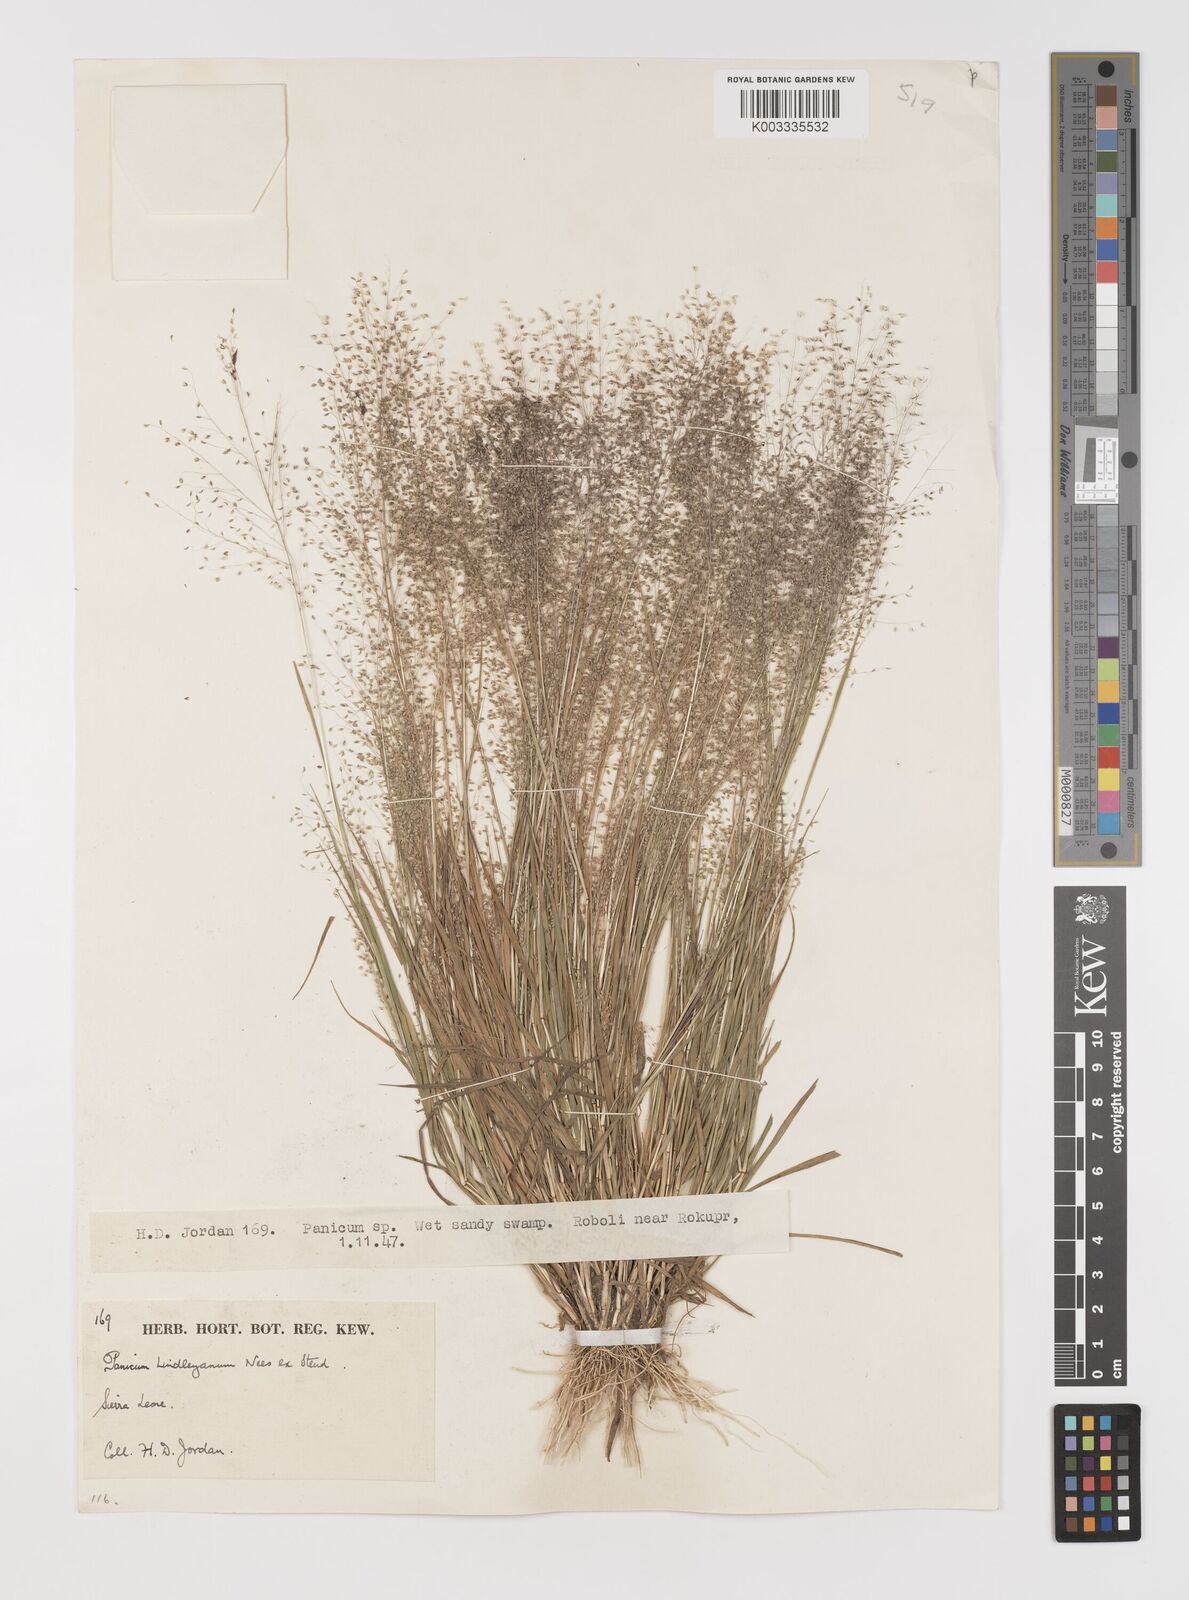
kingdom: Plantae
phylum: Tracheophyta
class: Liliopsida
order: Poales
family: Poaceae
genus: Trichanthecium
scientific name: Trichanthecium tenellum
